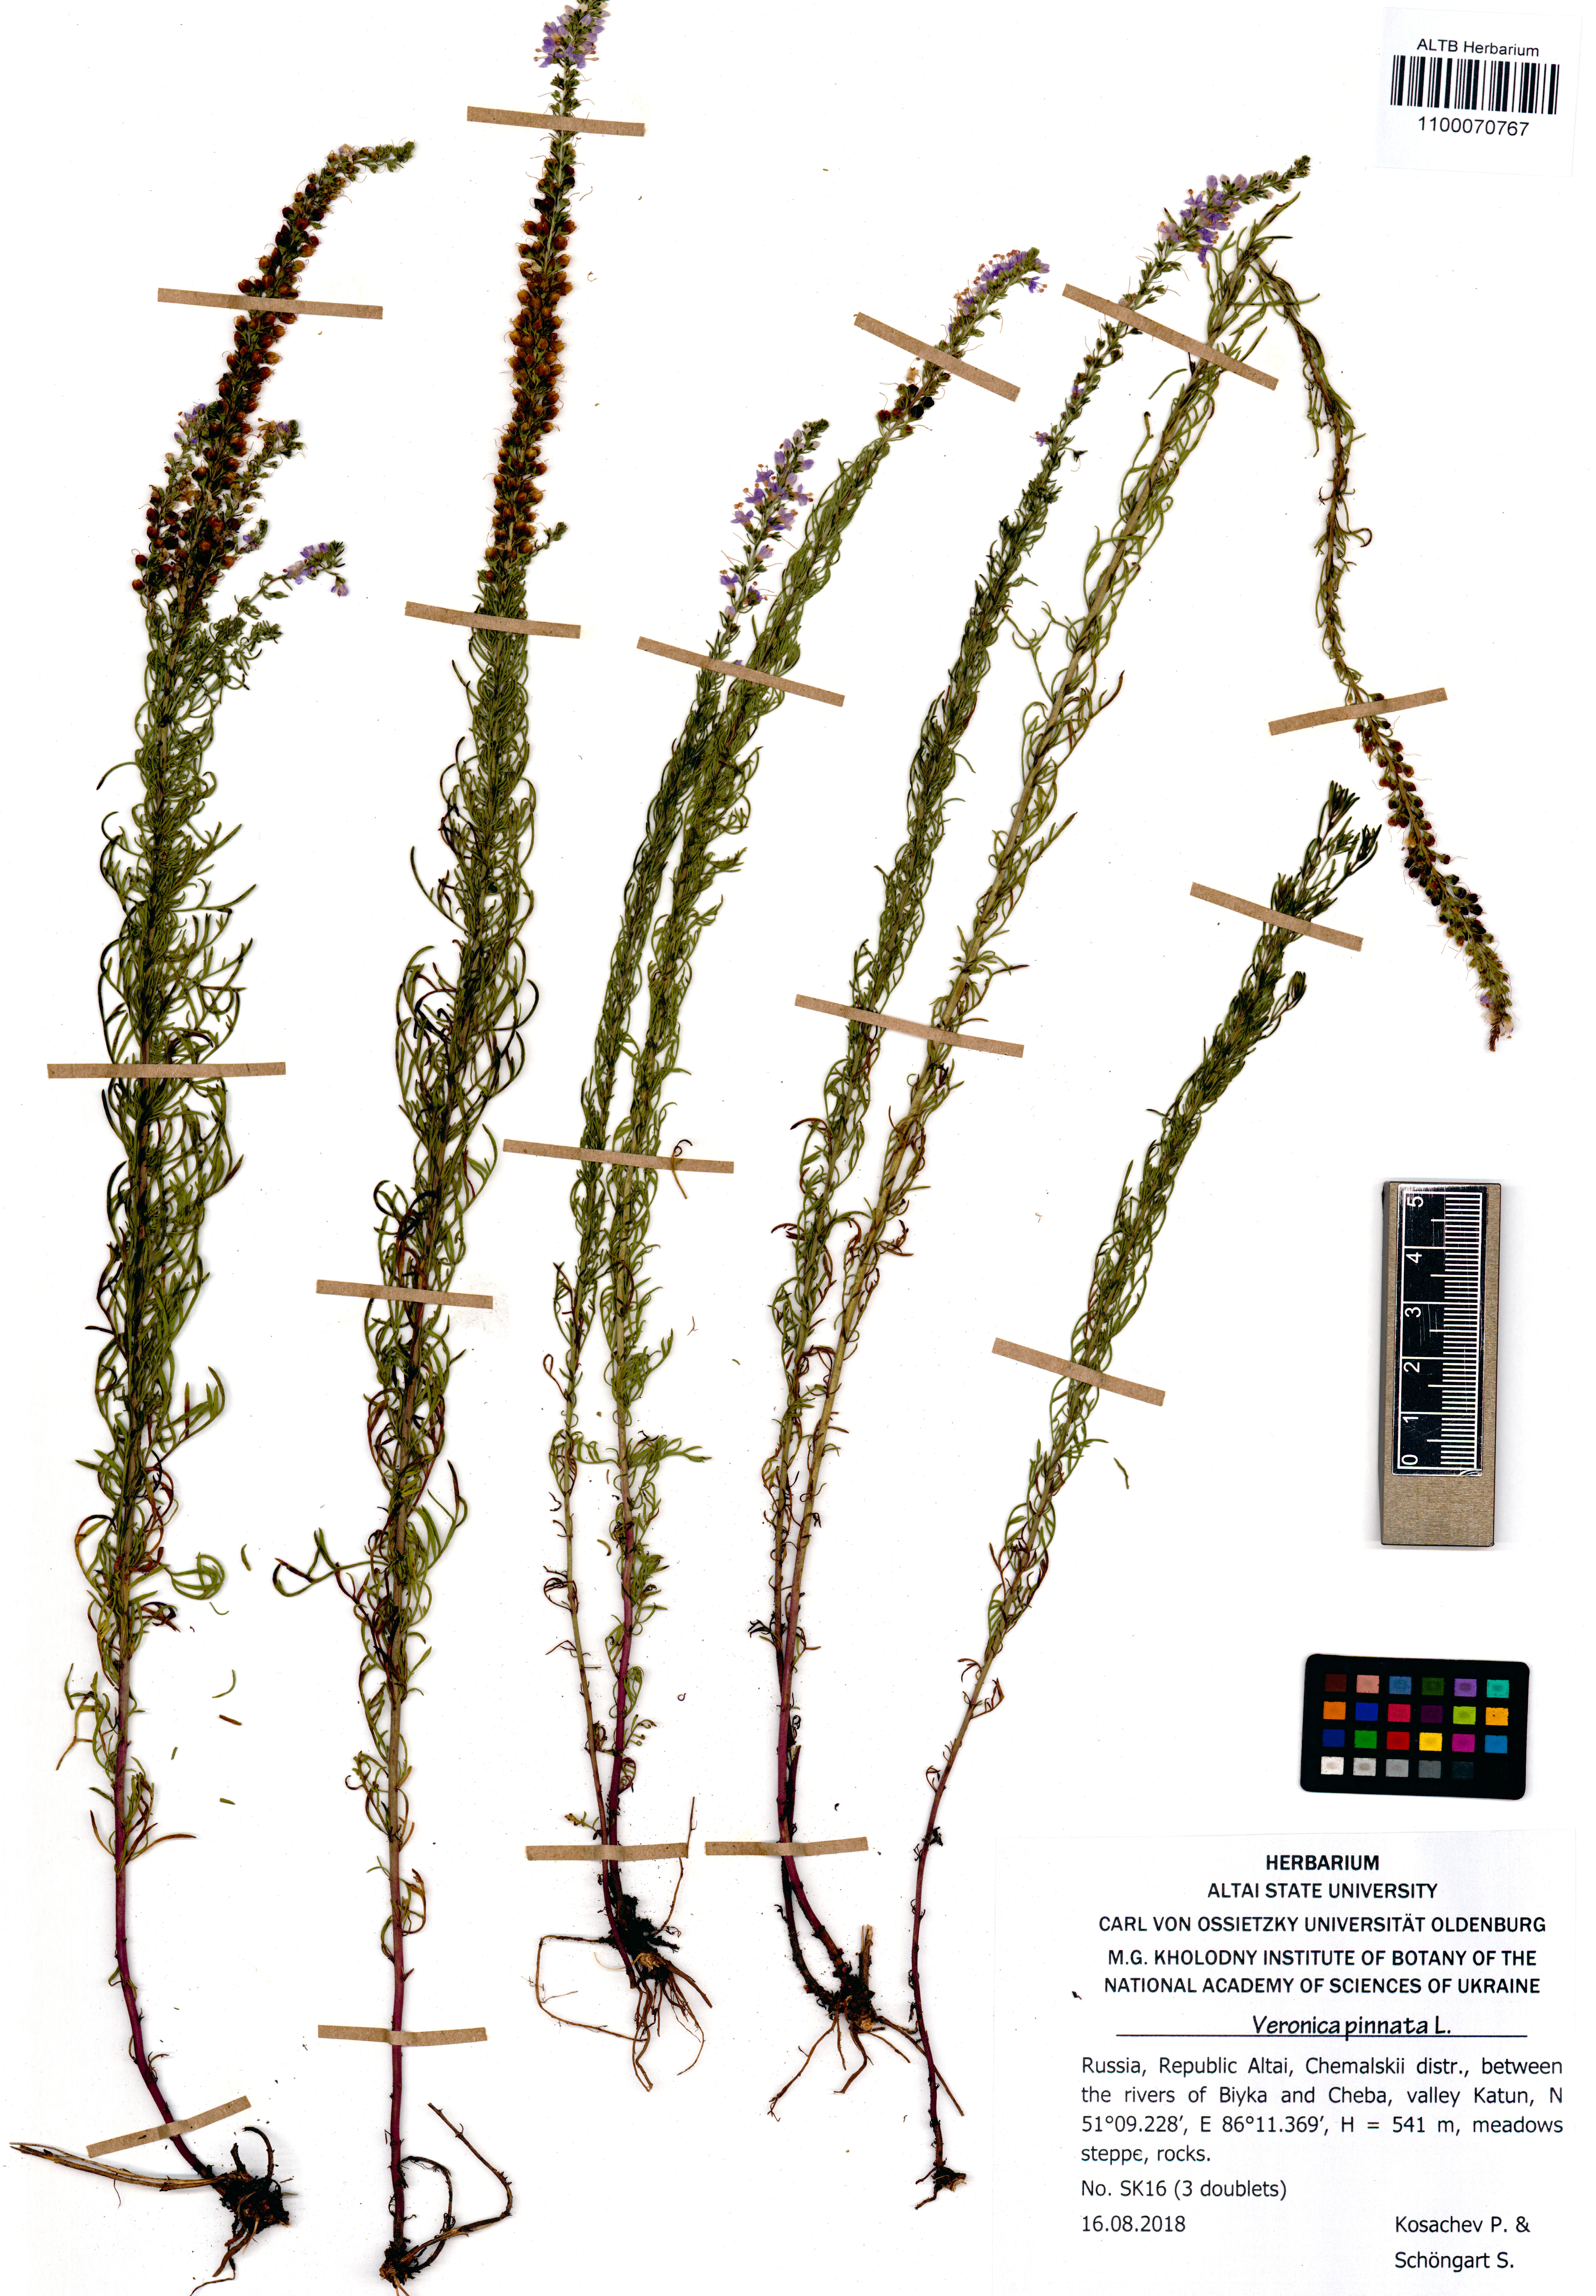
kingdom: Plantae
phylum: Tracheophyta
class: Magnoliopsida
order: Lamiales
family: Plantaginaceae
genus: Veronica
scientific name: Veronica pinnata
